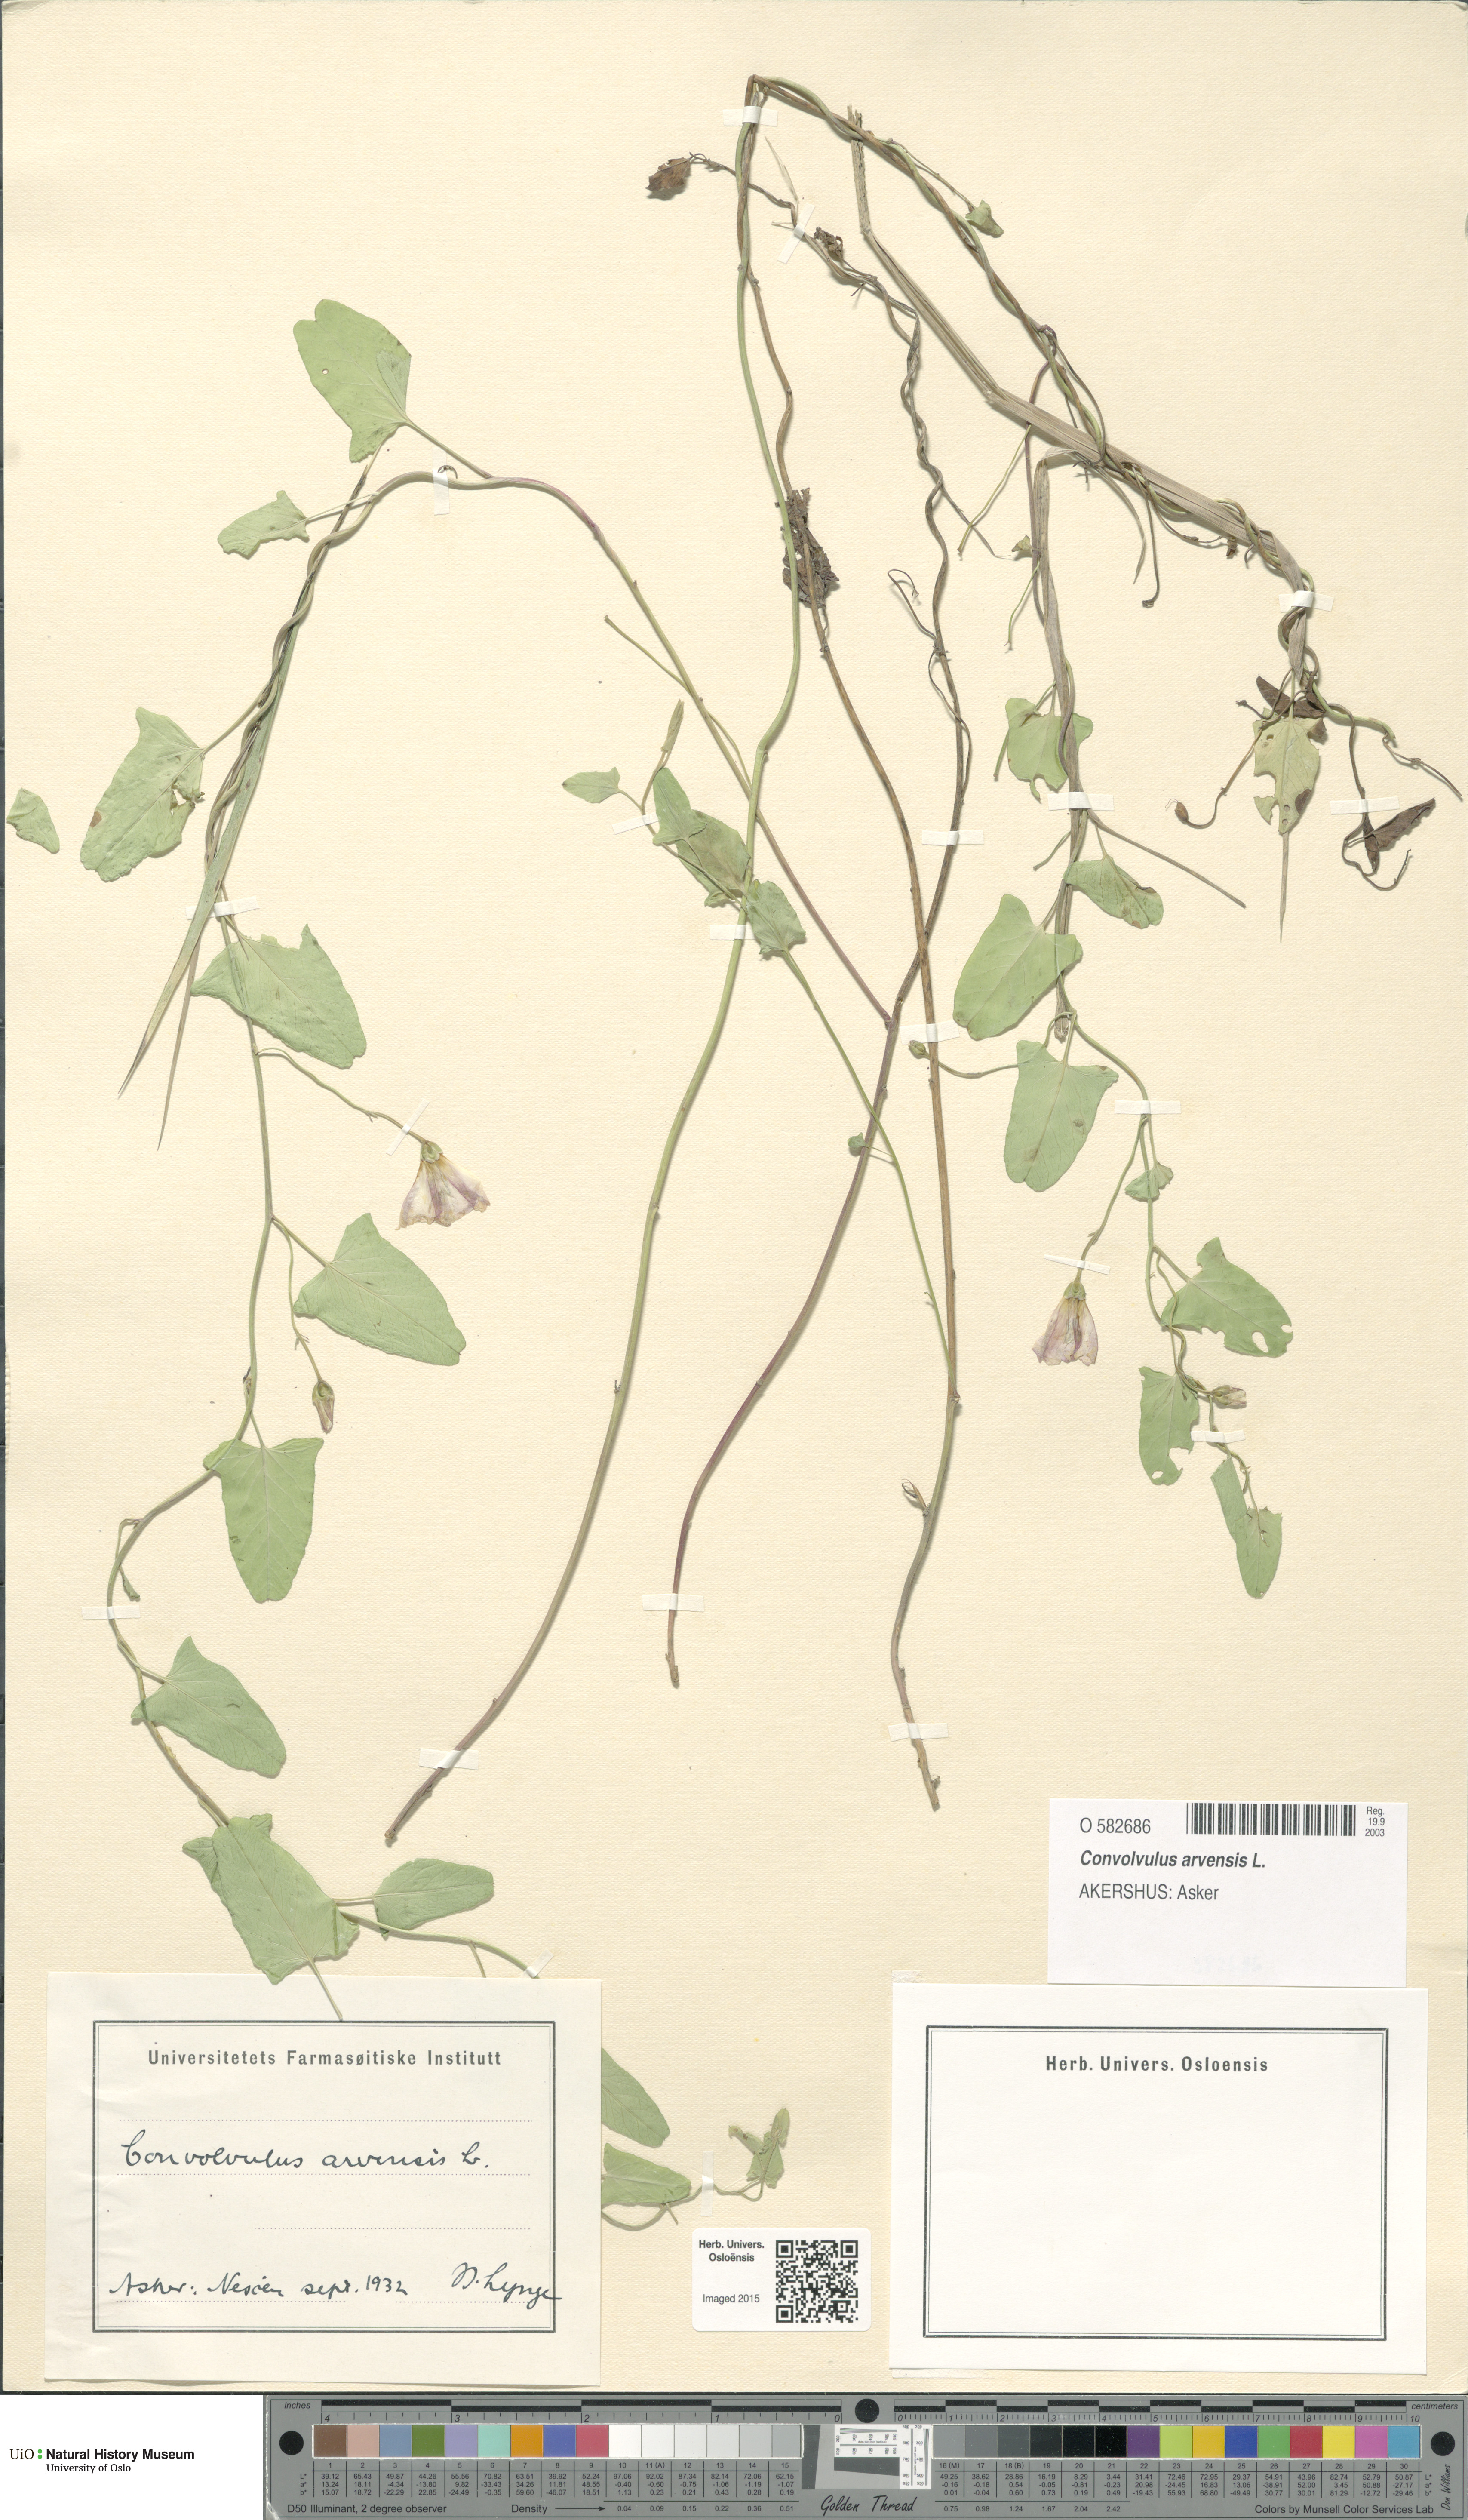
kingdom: Plantae
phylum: Tracheophyta
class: Magnoliopsida
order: Solanales
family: Convolvulaceae
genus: Convolvulus
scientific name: Convolvulus arvensis
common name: Field bindweed
